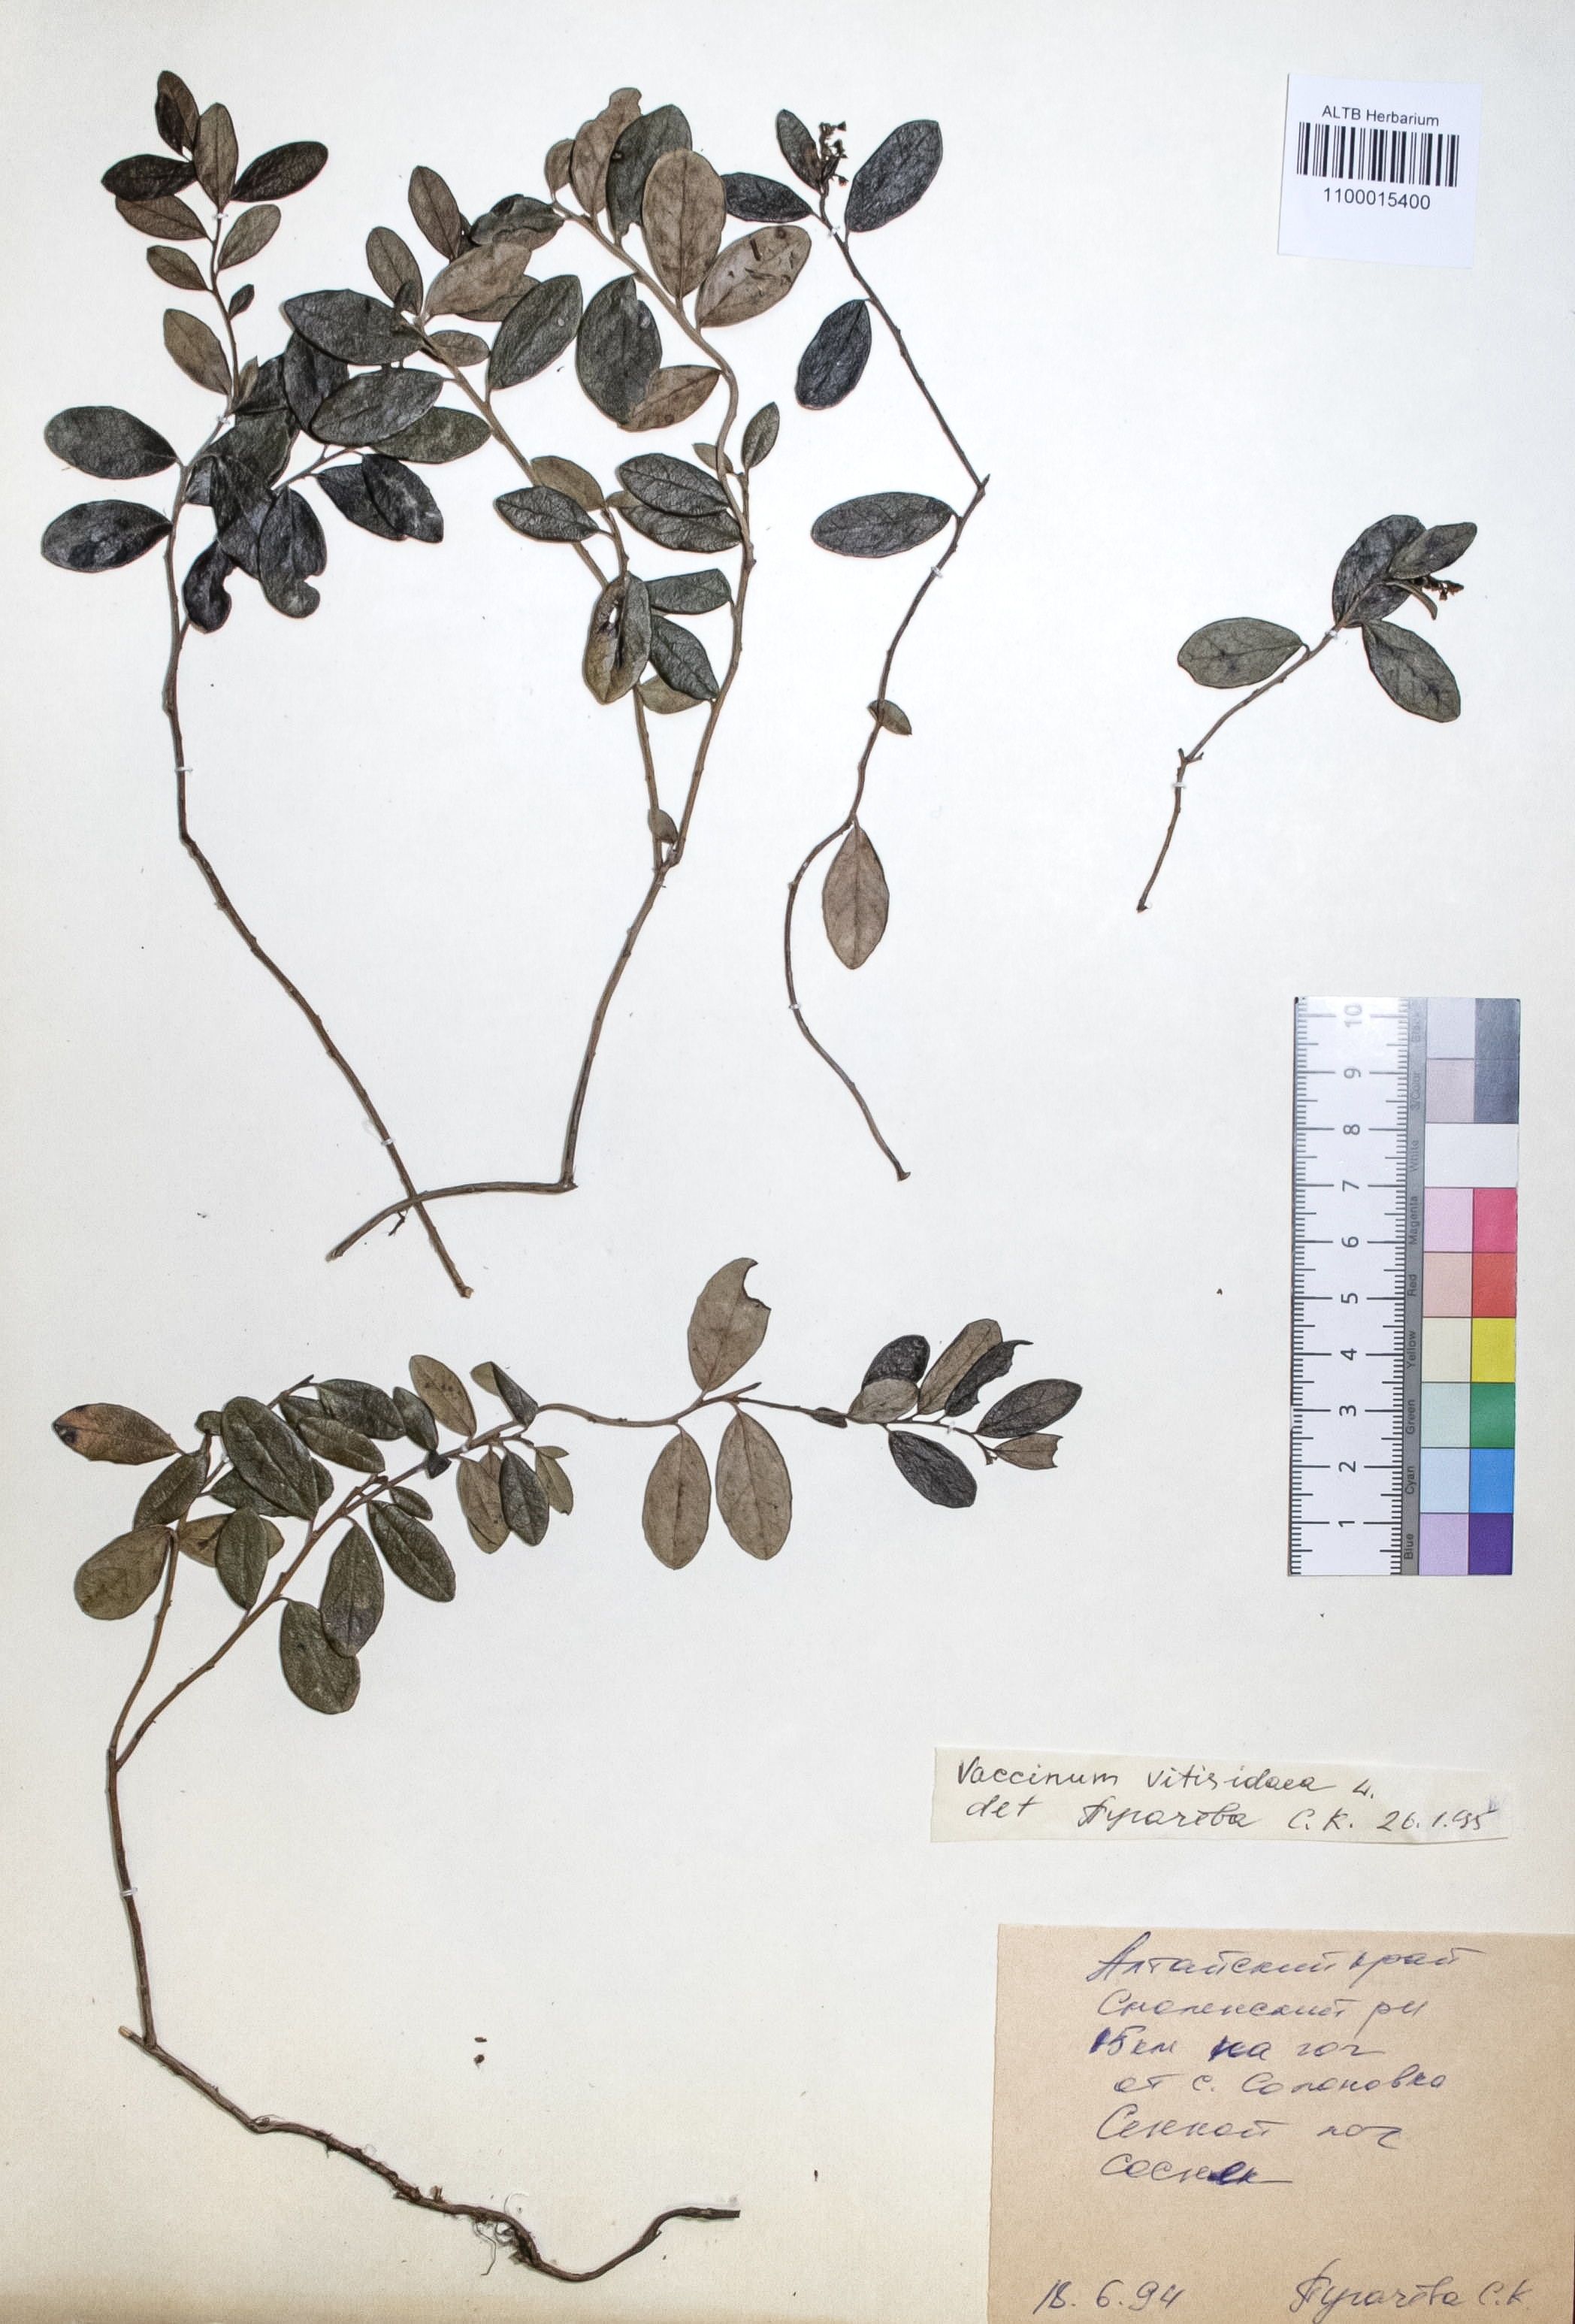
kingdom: Plantae
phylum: Tracheophyta
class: Magnoliopsida
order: Ericales
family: Ericaceae
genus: Vaccinium
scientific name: Vaccinium vitis-idaea
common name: Cowberry
